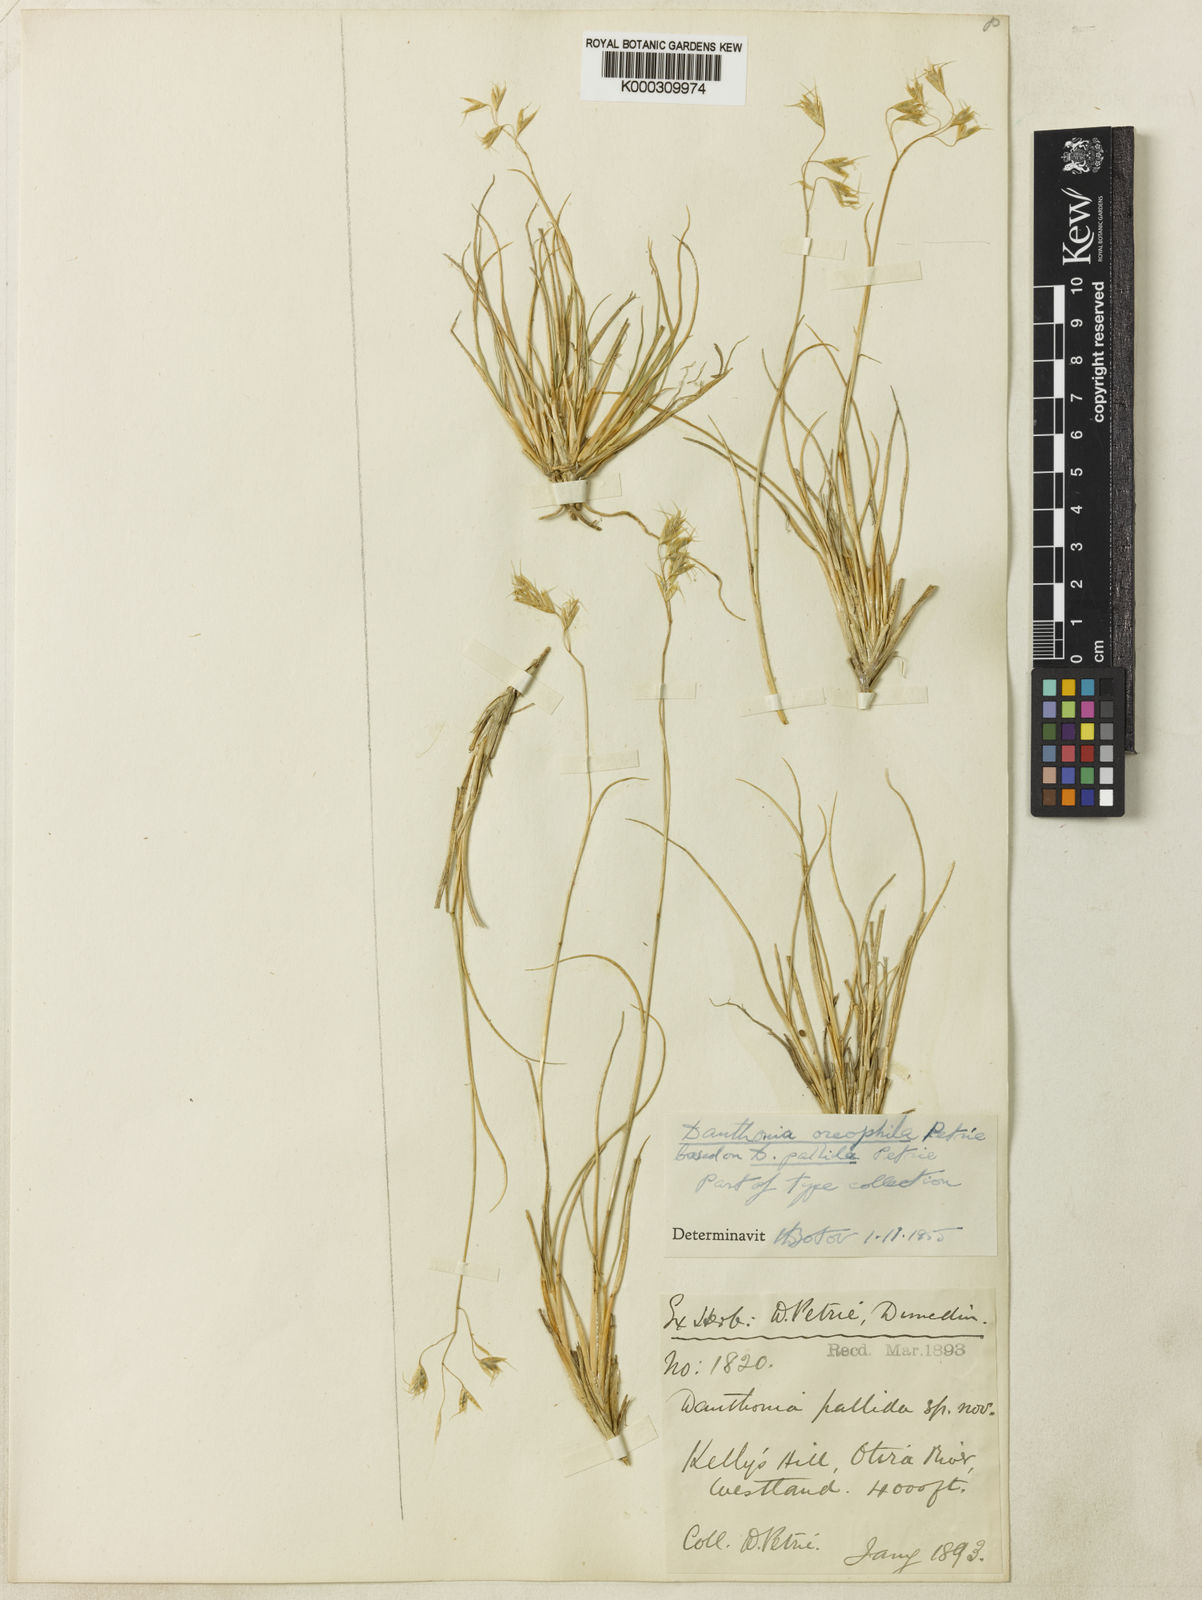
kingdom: Plantae
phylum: Tracheophyta
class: Liliopsida
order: Poales
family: Poaceae
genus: Chionochloa
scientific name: Chionochloa oreophila
